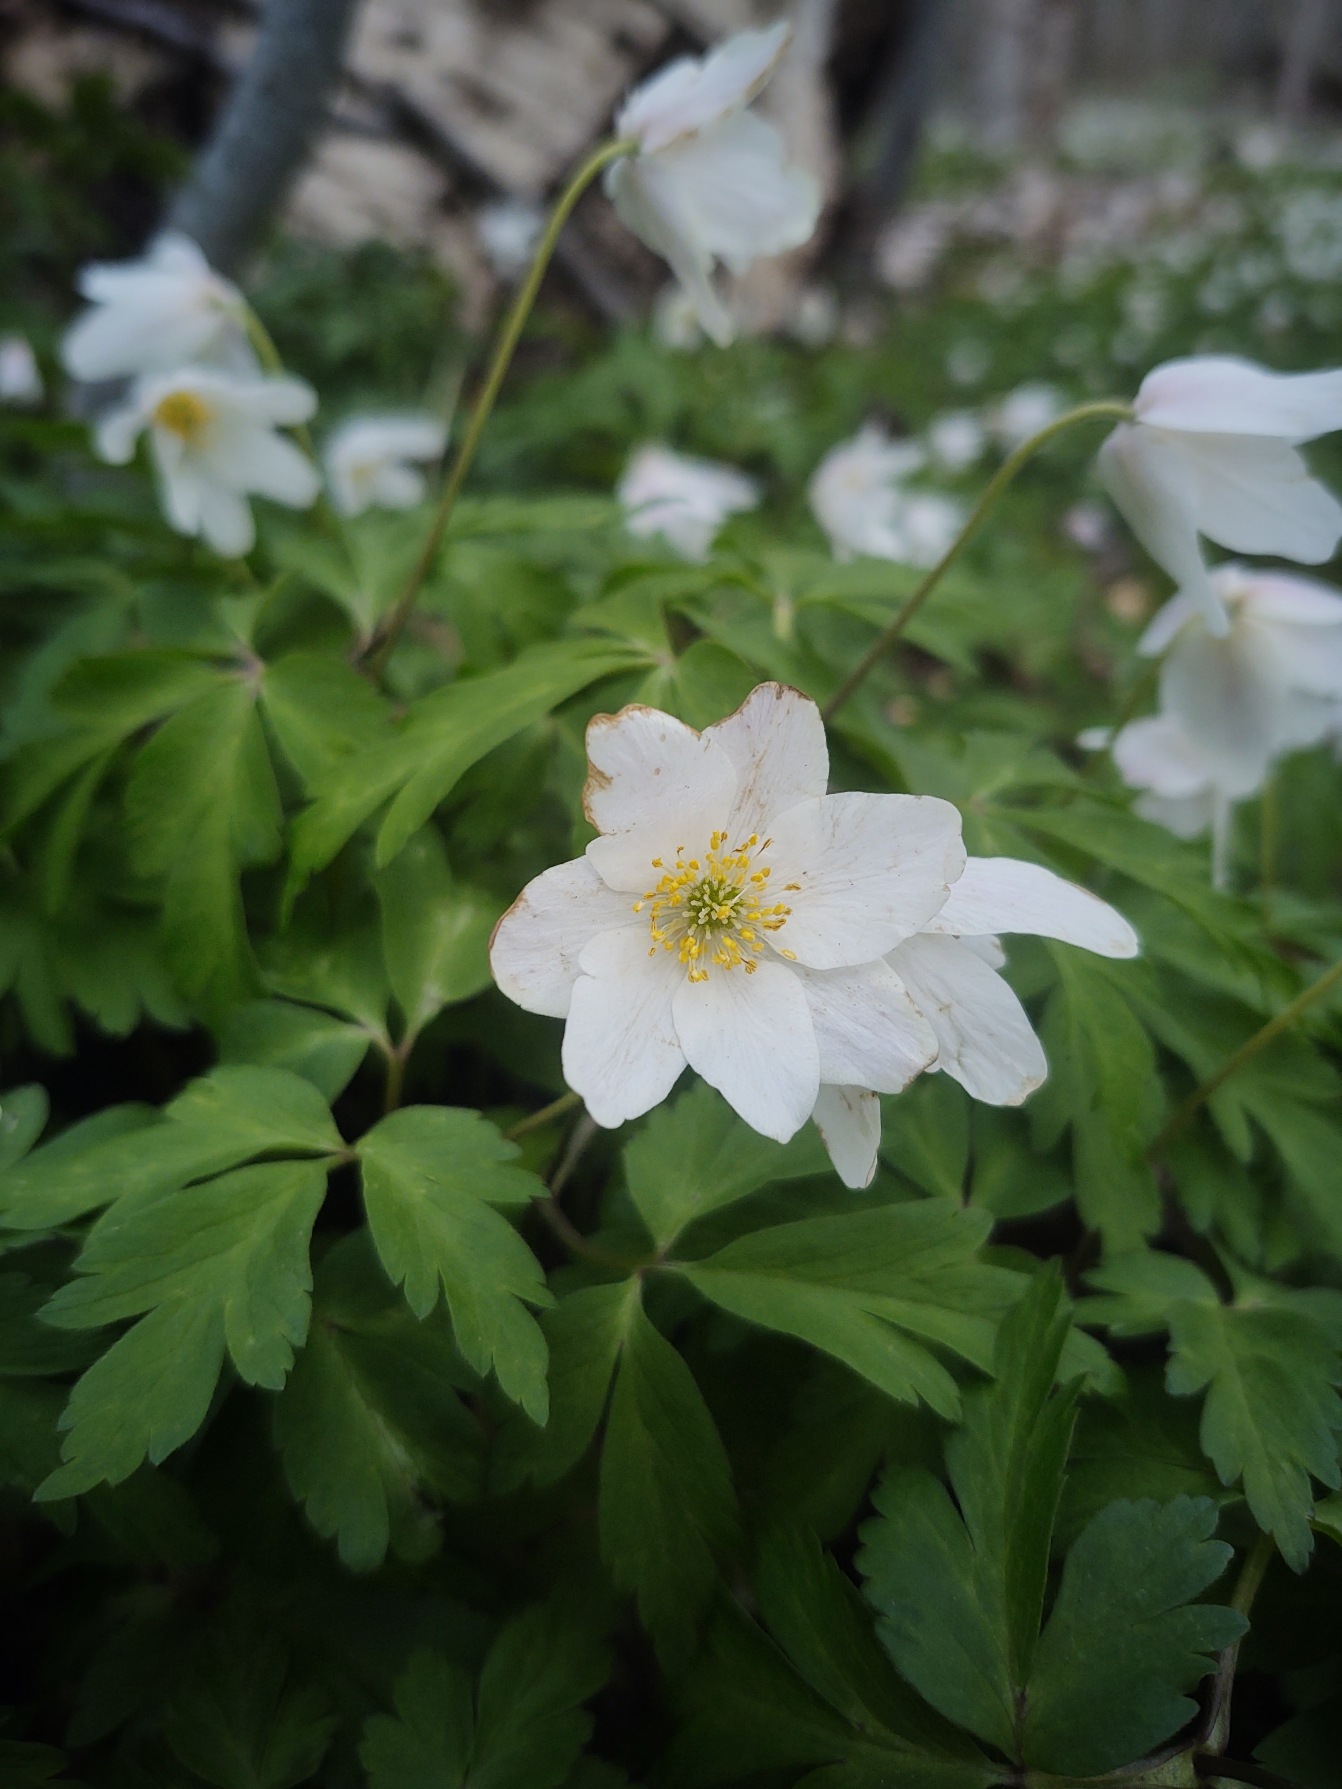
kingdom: Plantae
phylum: Tracheophyta
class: Magnoliopsida
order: Ranunculales
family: Ranunculaceae
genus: Anemone
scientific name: Anemone nemorosa
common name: Hvid anemone
